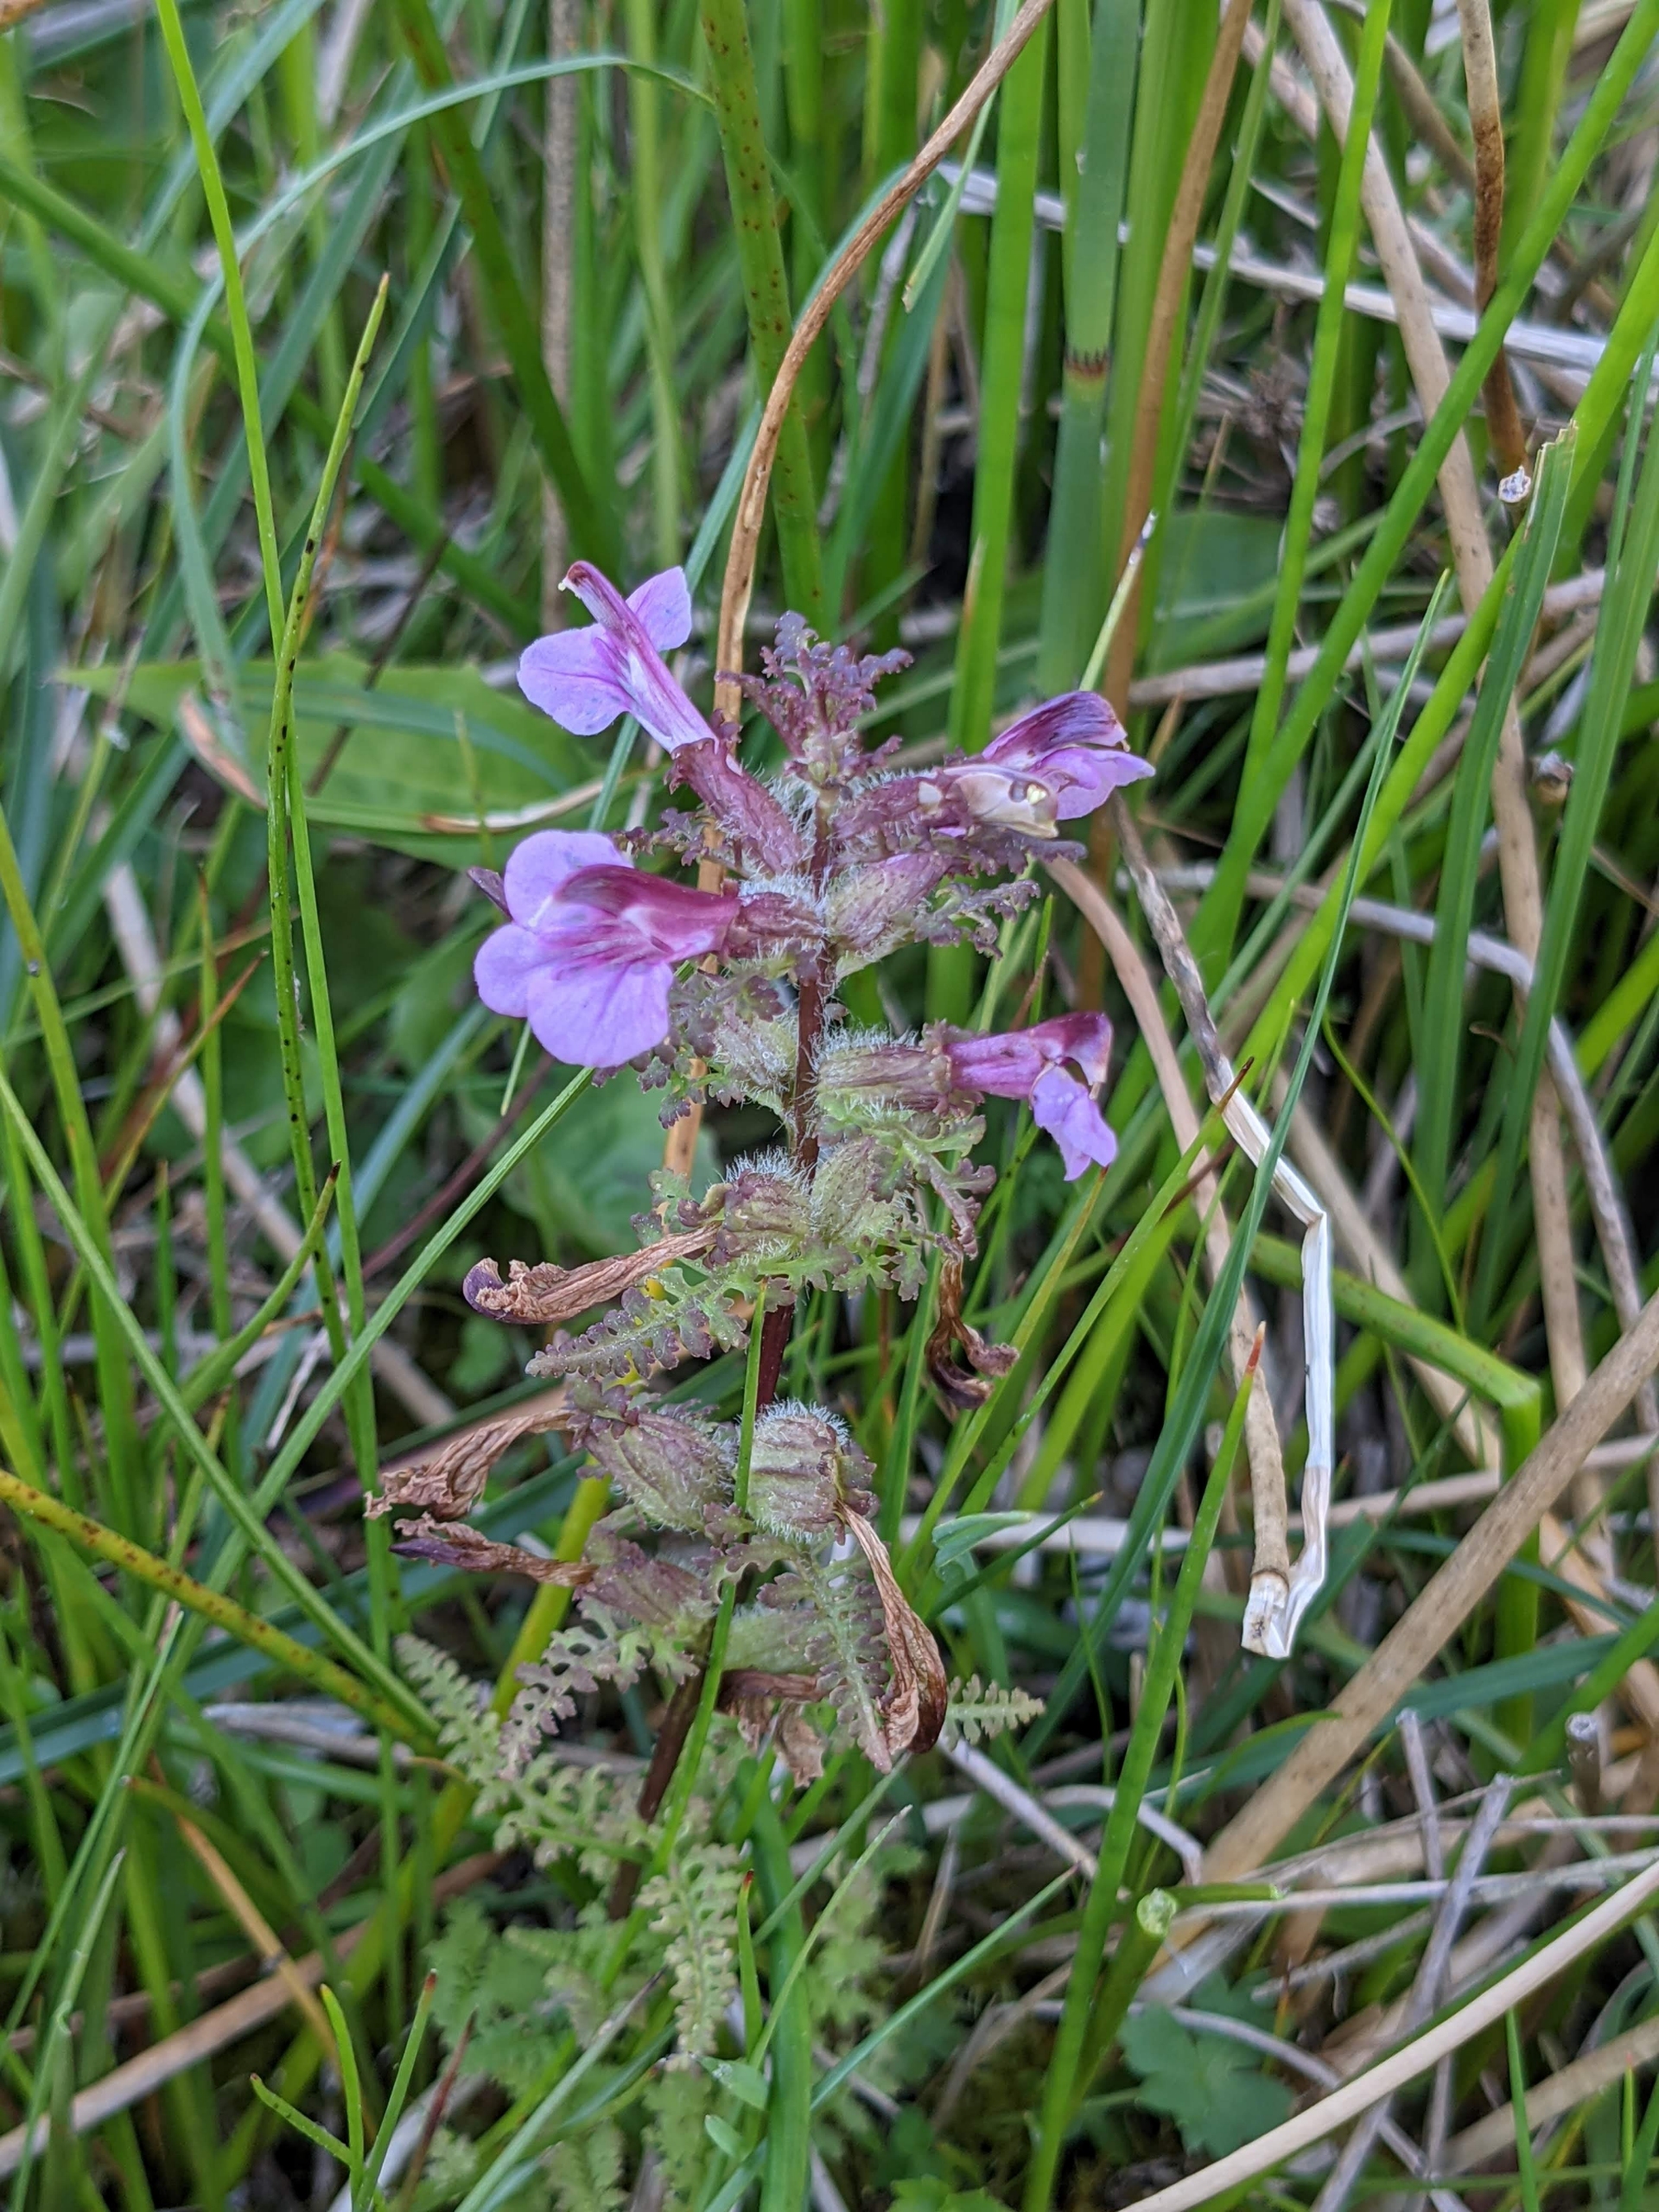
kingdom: Plantae
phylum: Tracheophyta
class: Magnoliopsida
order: Lamiales
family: Orobanchaceae
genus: Pedicularis
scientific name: Pedicularis palustris
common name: Eng-troldurt
